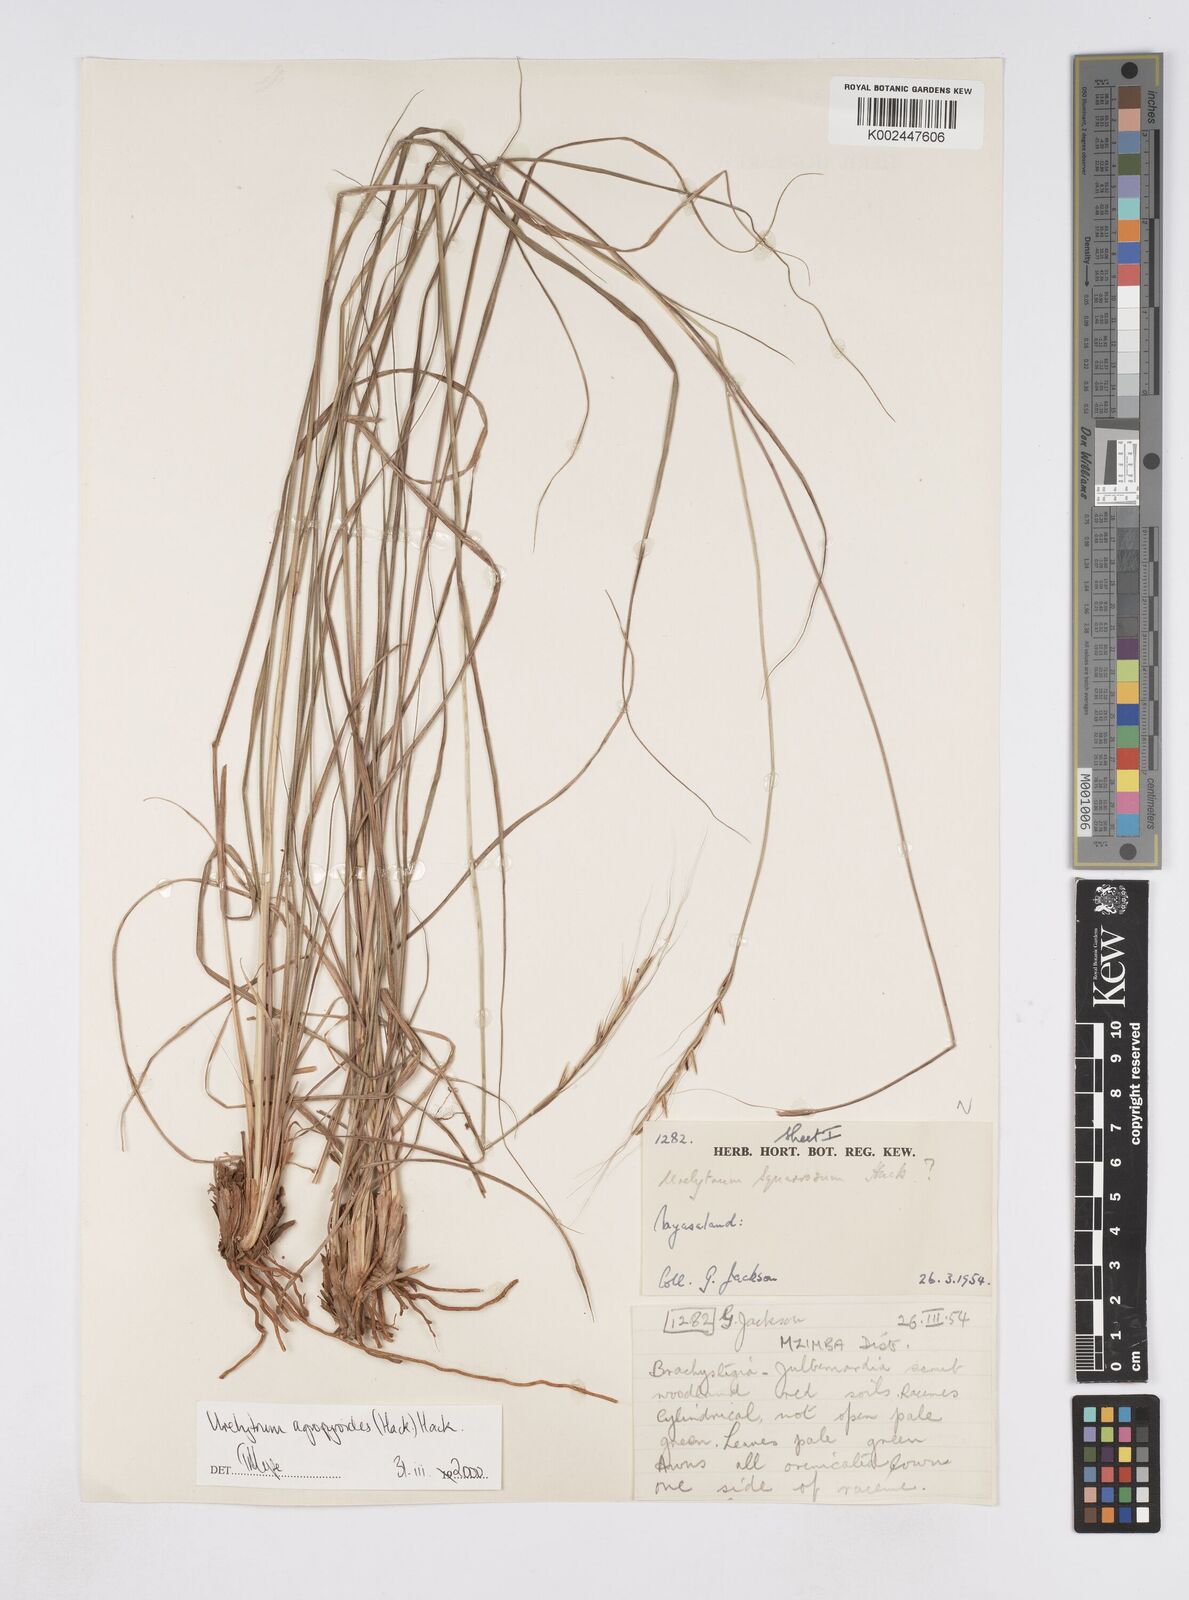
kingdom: Plantae
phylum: Tracheophyta
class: Liliopsida
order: Poales
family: Poaceae
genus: Urelytrum
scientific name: Urelytrum agropyroides
